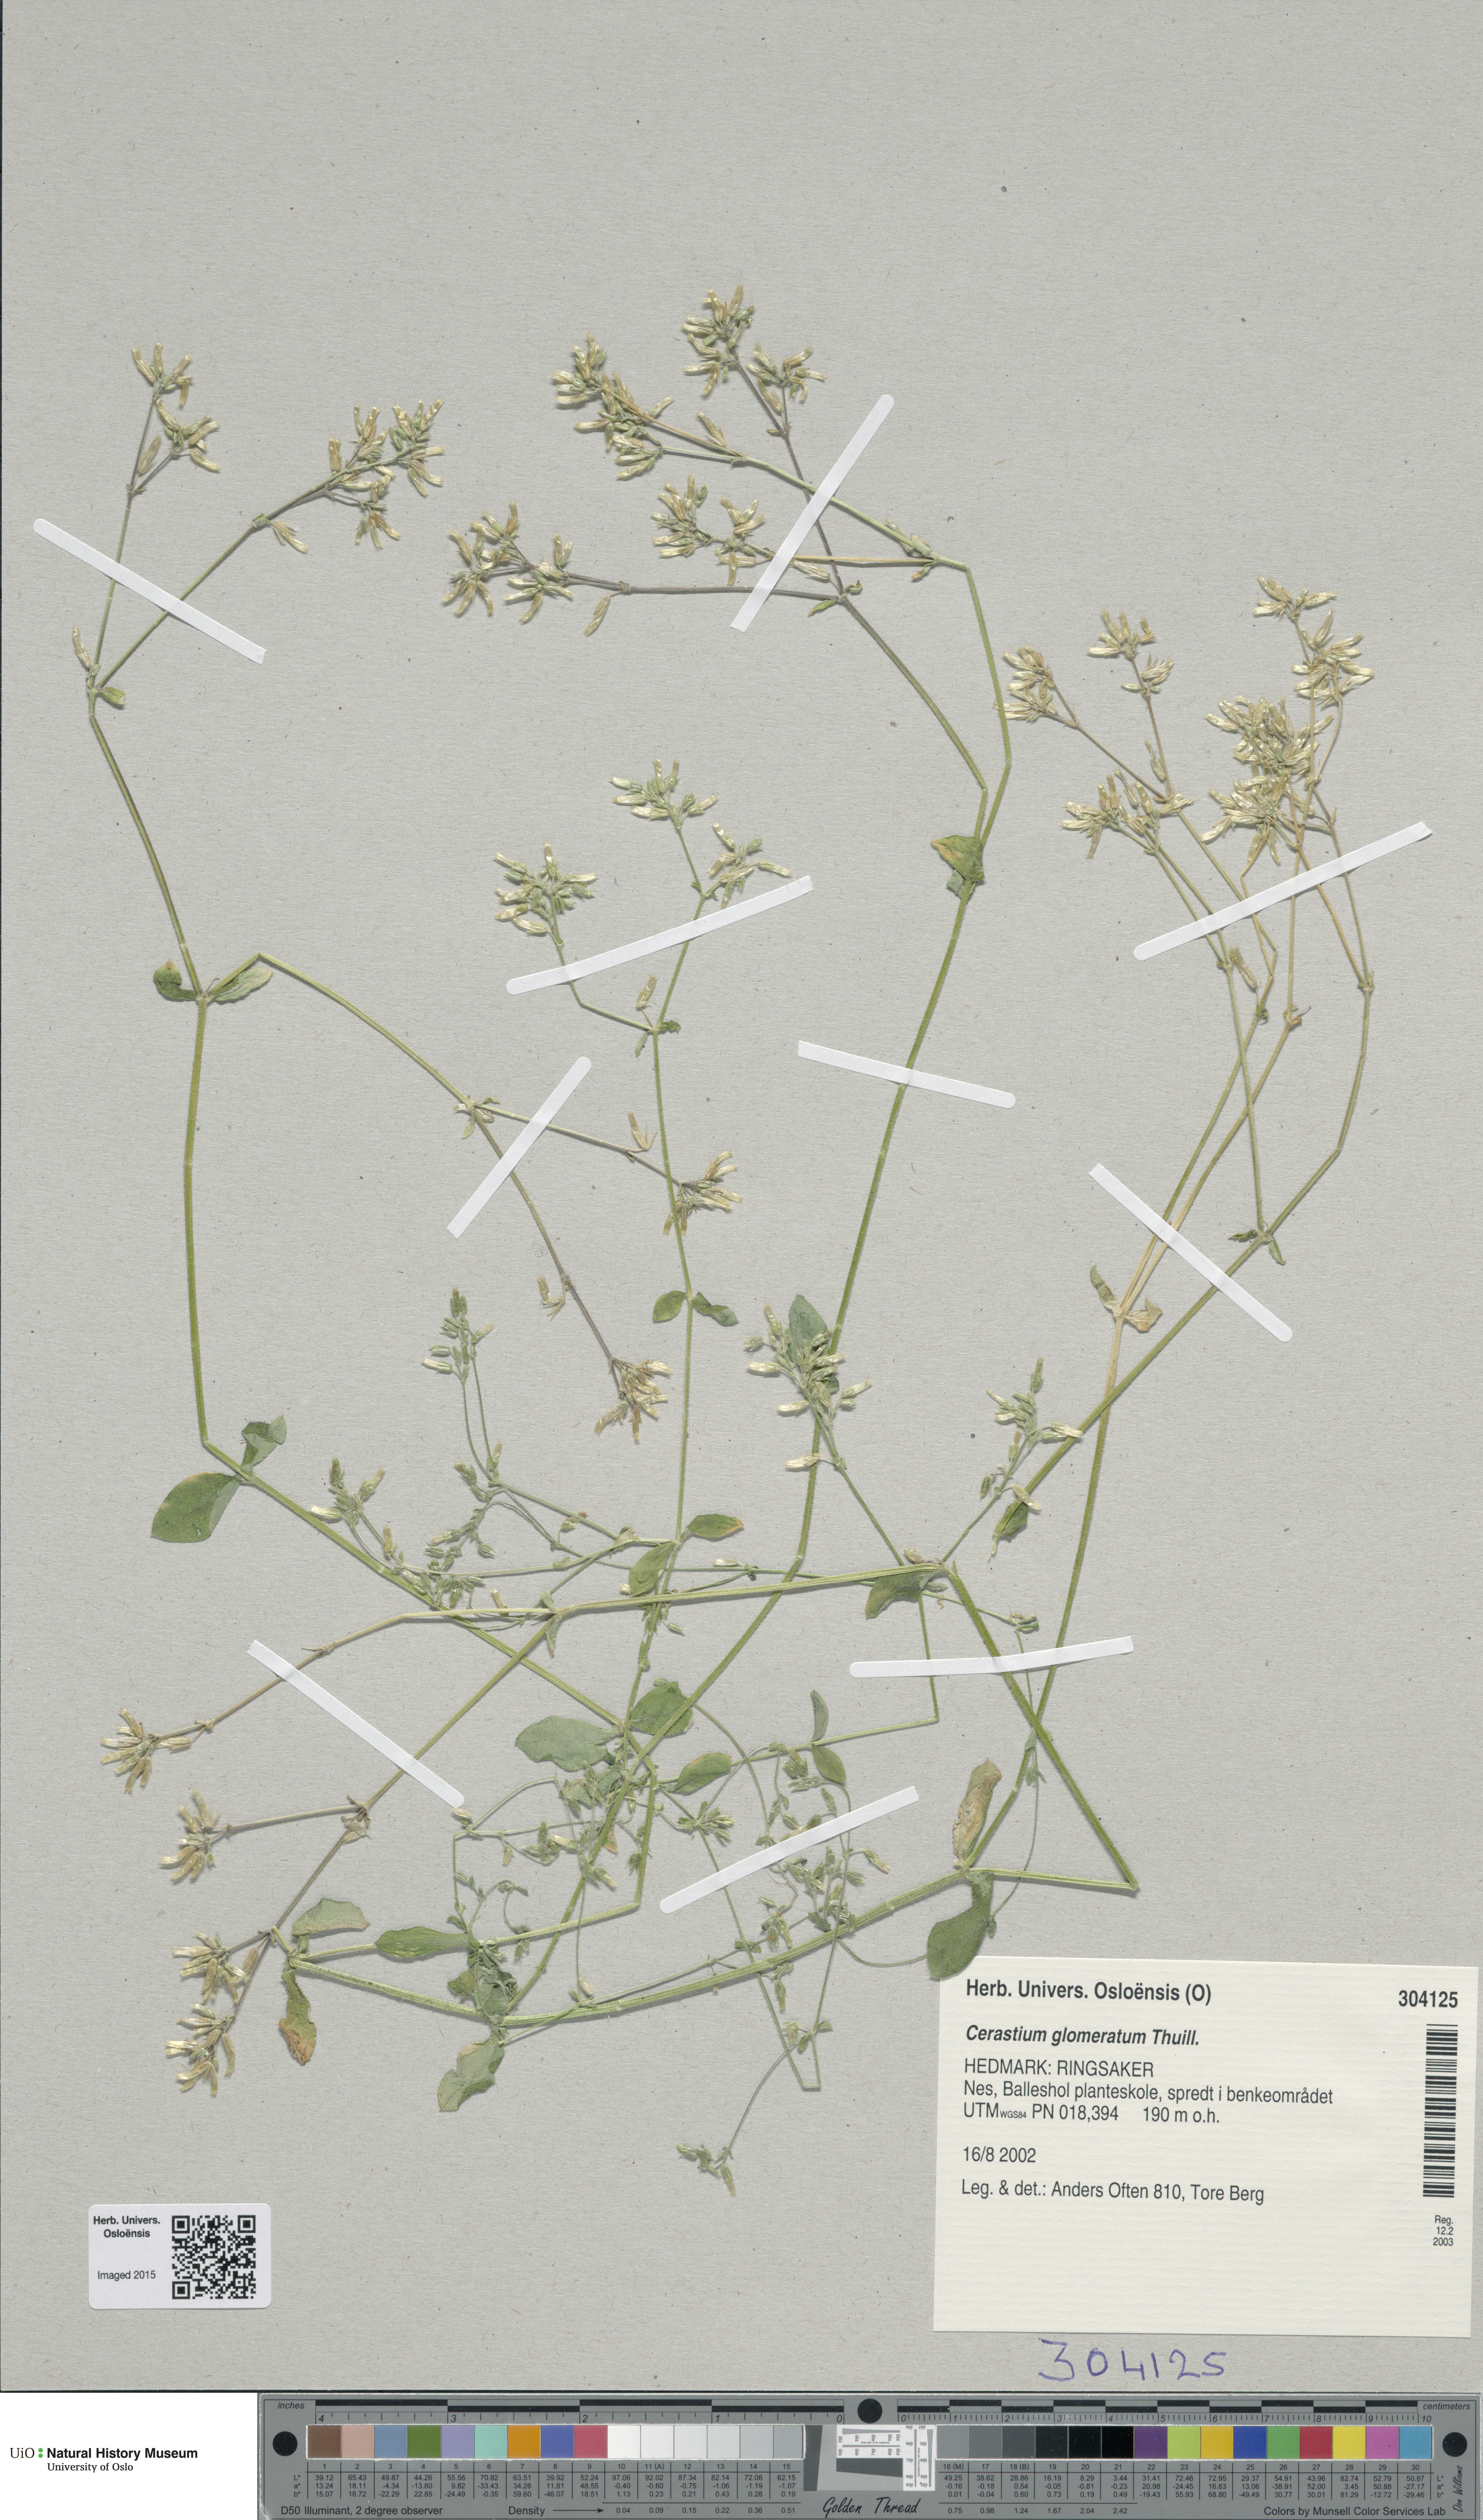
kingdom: Plantae
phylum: Tracheophyta
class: Magnoliopsida
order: Caryophyllales
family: Caryophyllaceae
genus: Cerastium
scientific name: Cerastium glomeratum
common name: Sticky chickweed
